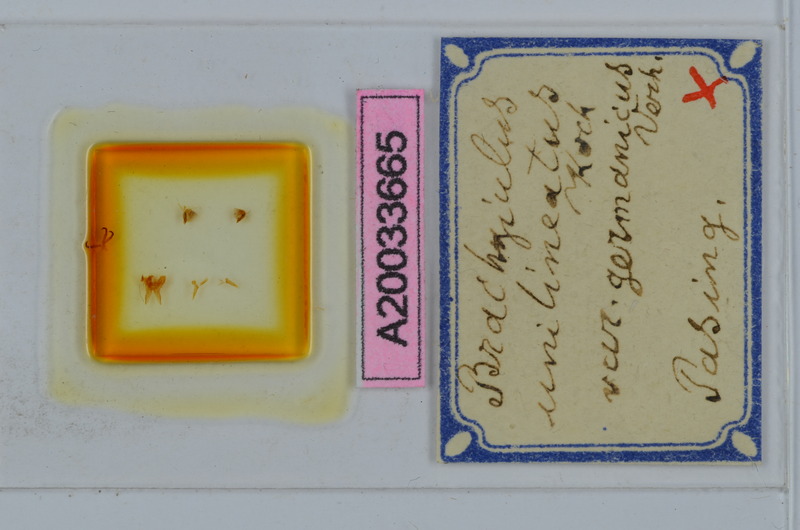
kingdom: Animalia
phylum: Arthropoda
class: Diplopoda
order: Julida
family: Julidae
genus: Megaphyllum
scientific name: Megaphyllum unilineatum
